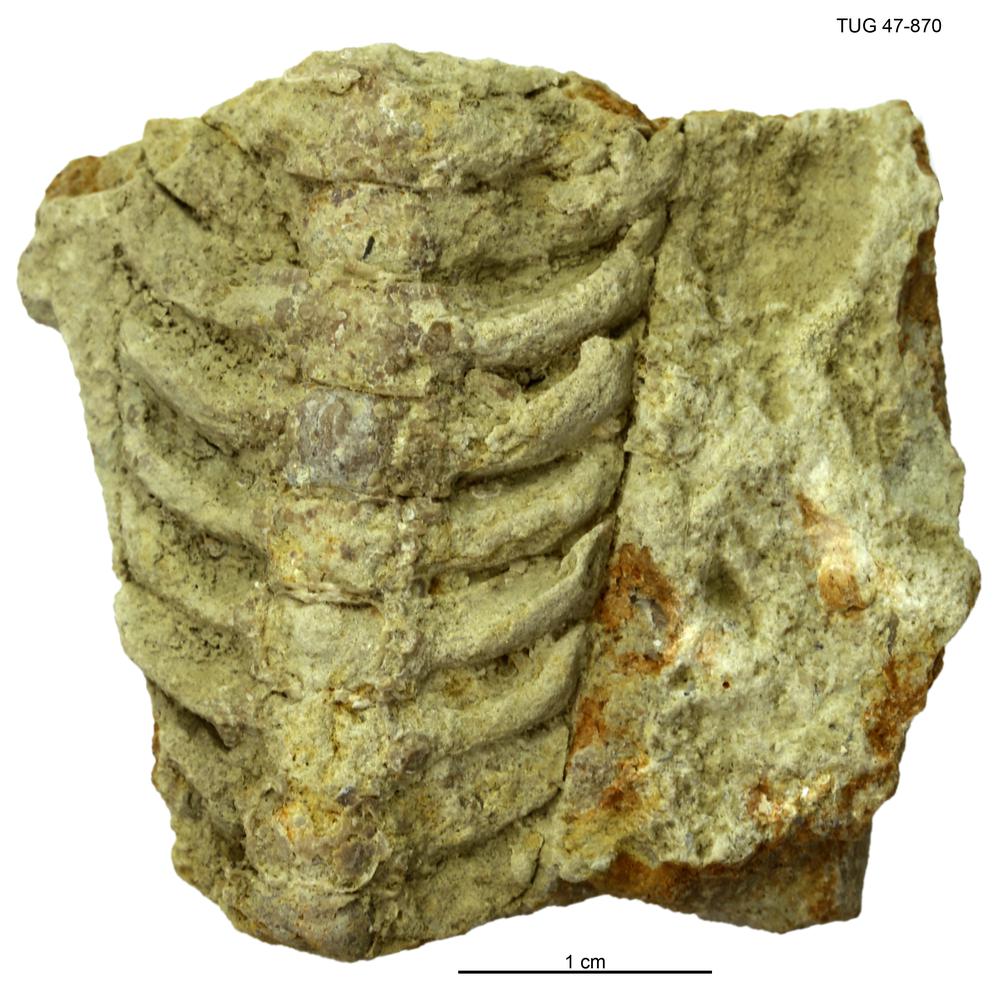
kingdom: Animalia
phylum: Mollusca
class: Cephalopoda
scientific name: Cephalopoda
